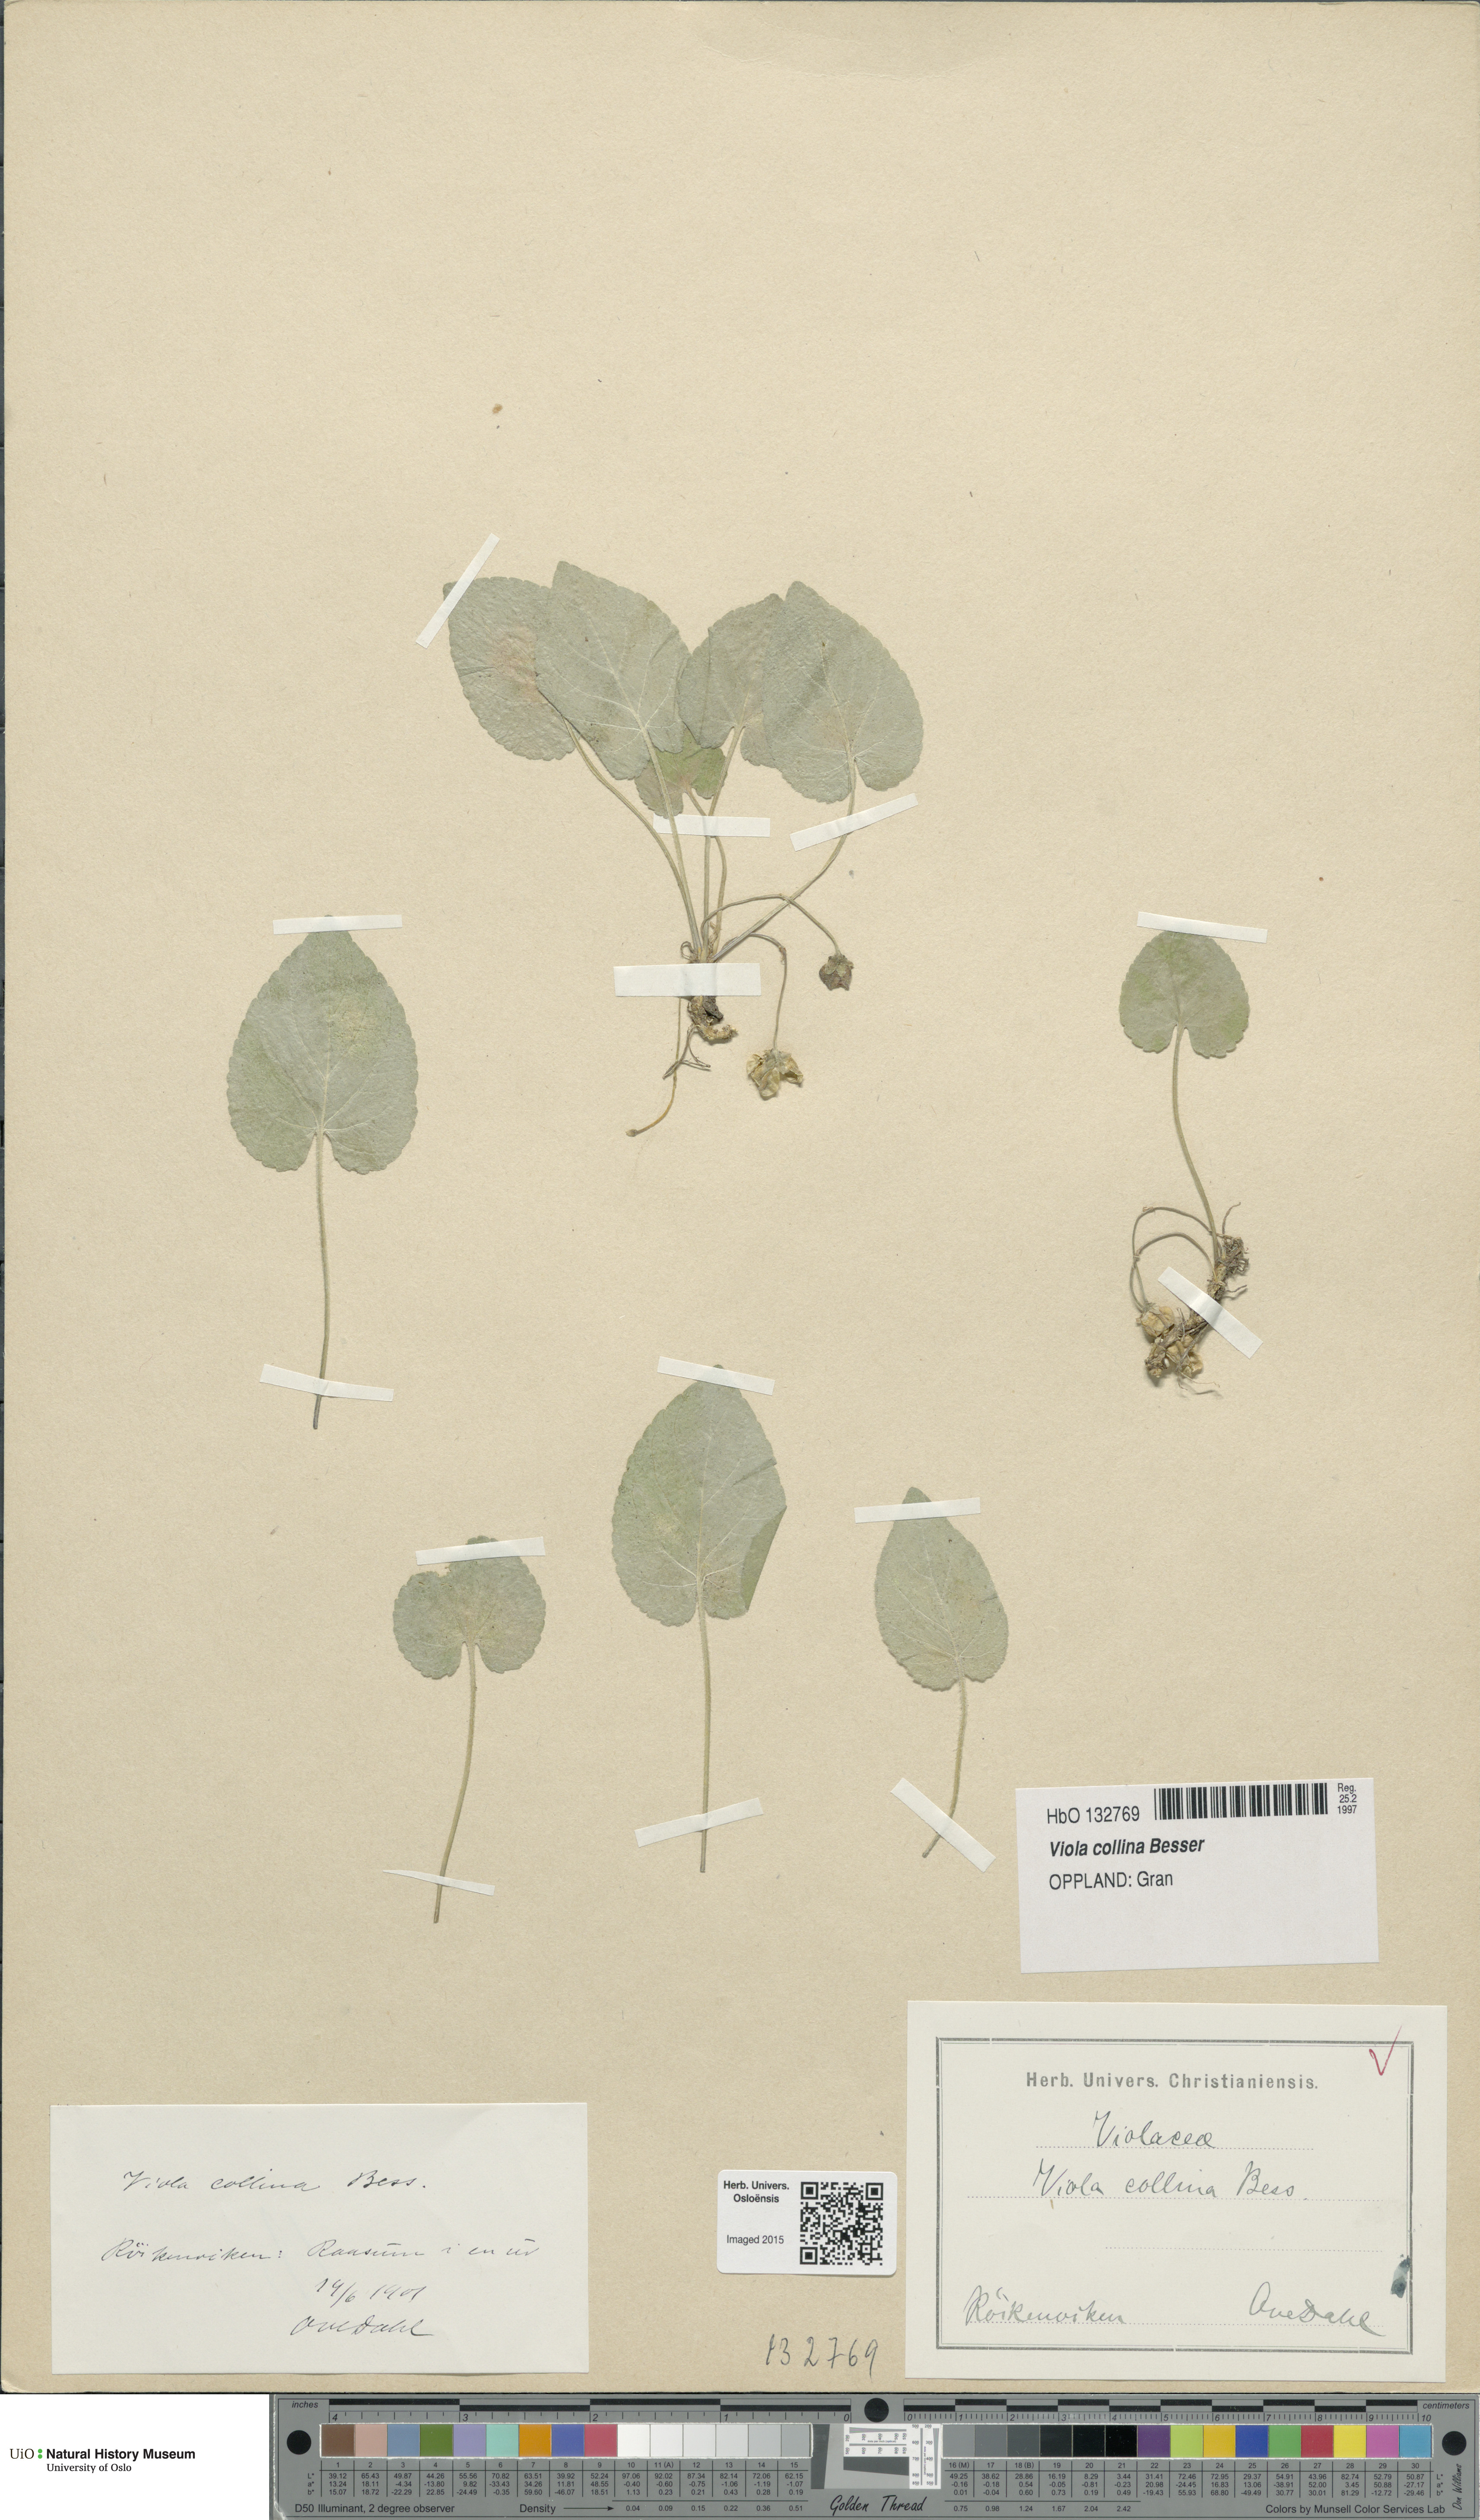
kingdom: Plantae
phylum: Tracheophyta
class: Magnoliopsida
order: Malpighiales
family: Violaceae
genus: Viola
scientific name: Viola collina
